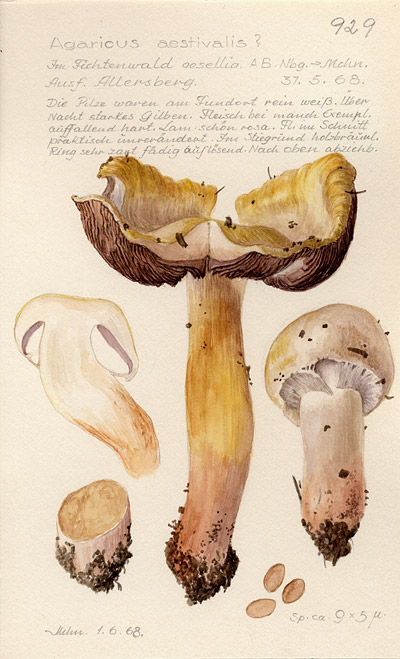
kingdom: Fungi
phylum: Basidiomycota
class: Agaricomycetes
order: Agaricales
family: Agaricaceae
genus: Agaricus
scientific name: Agaricus altipes
